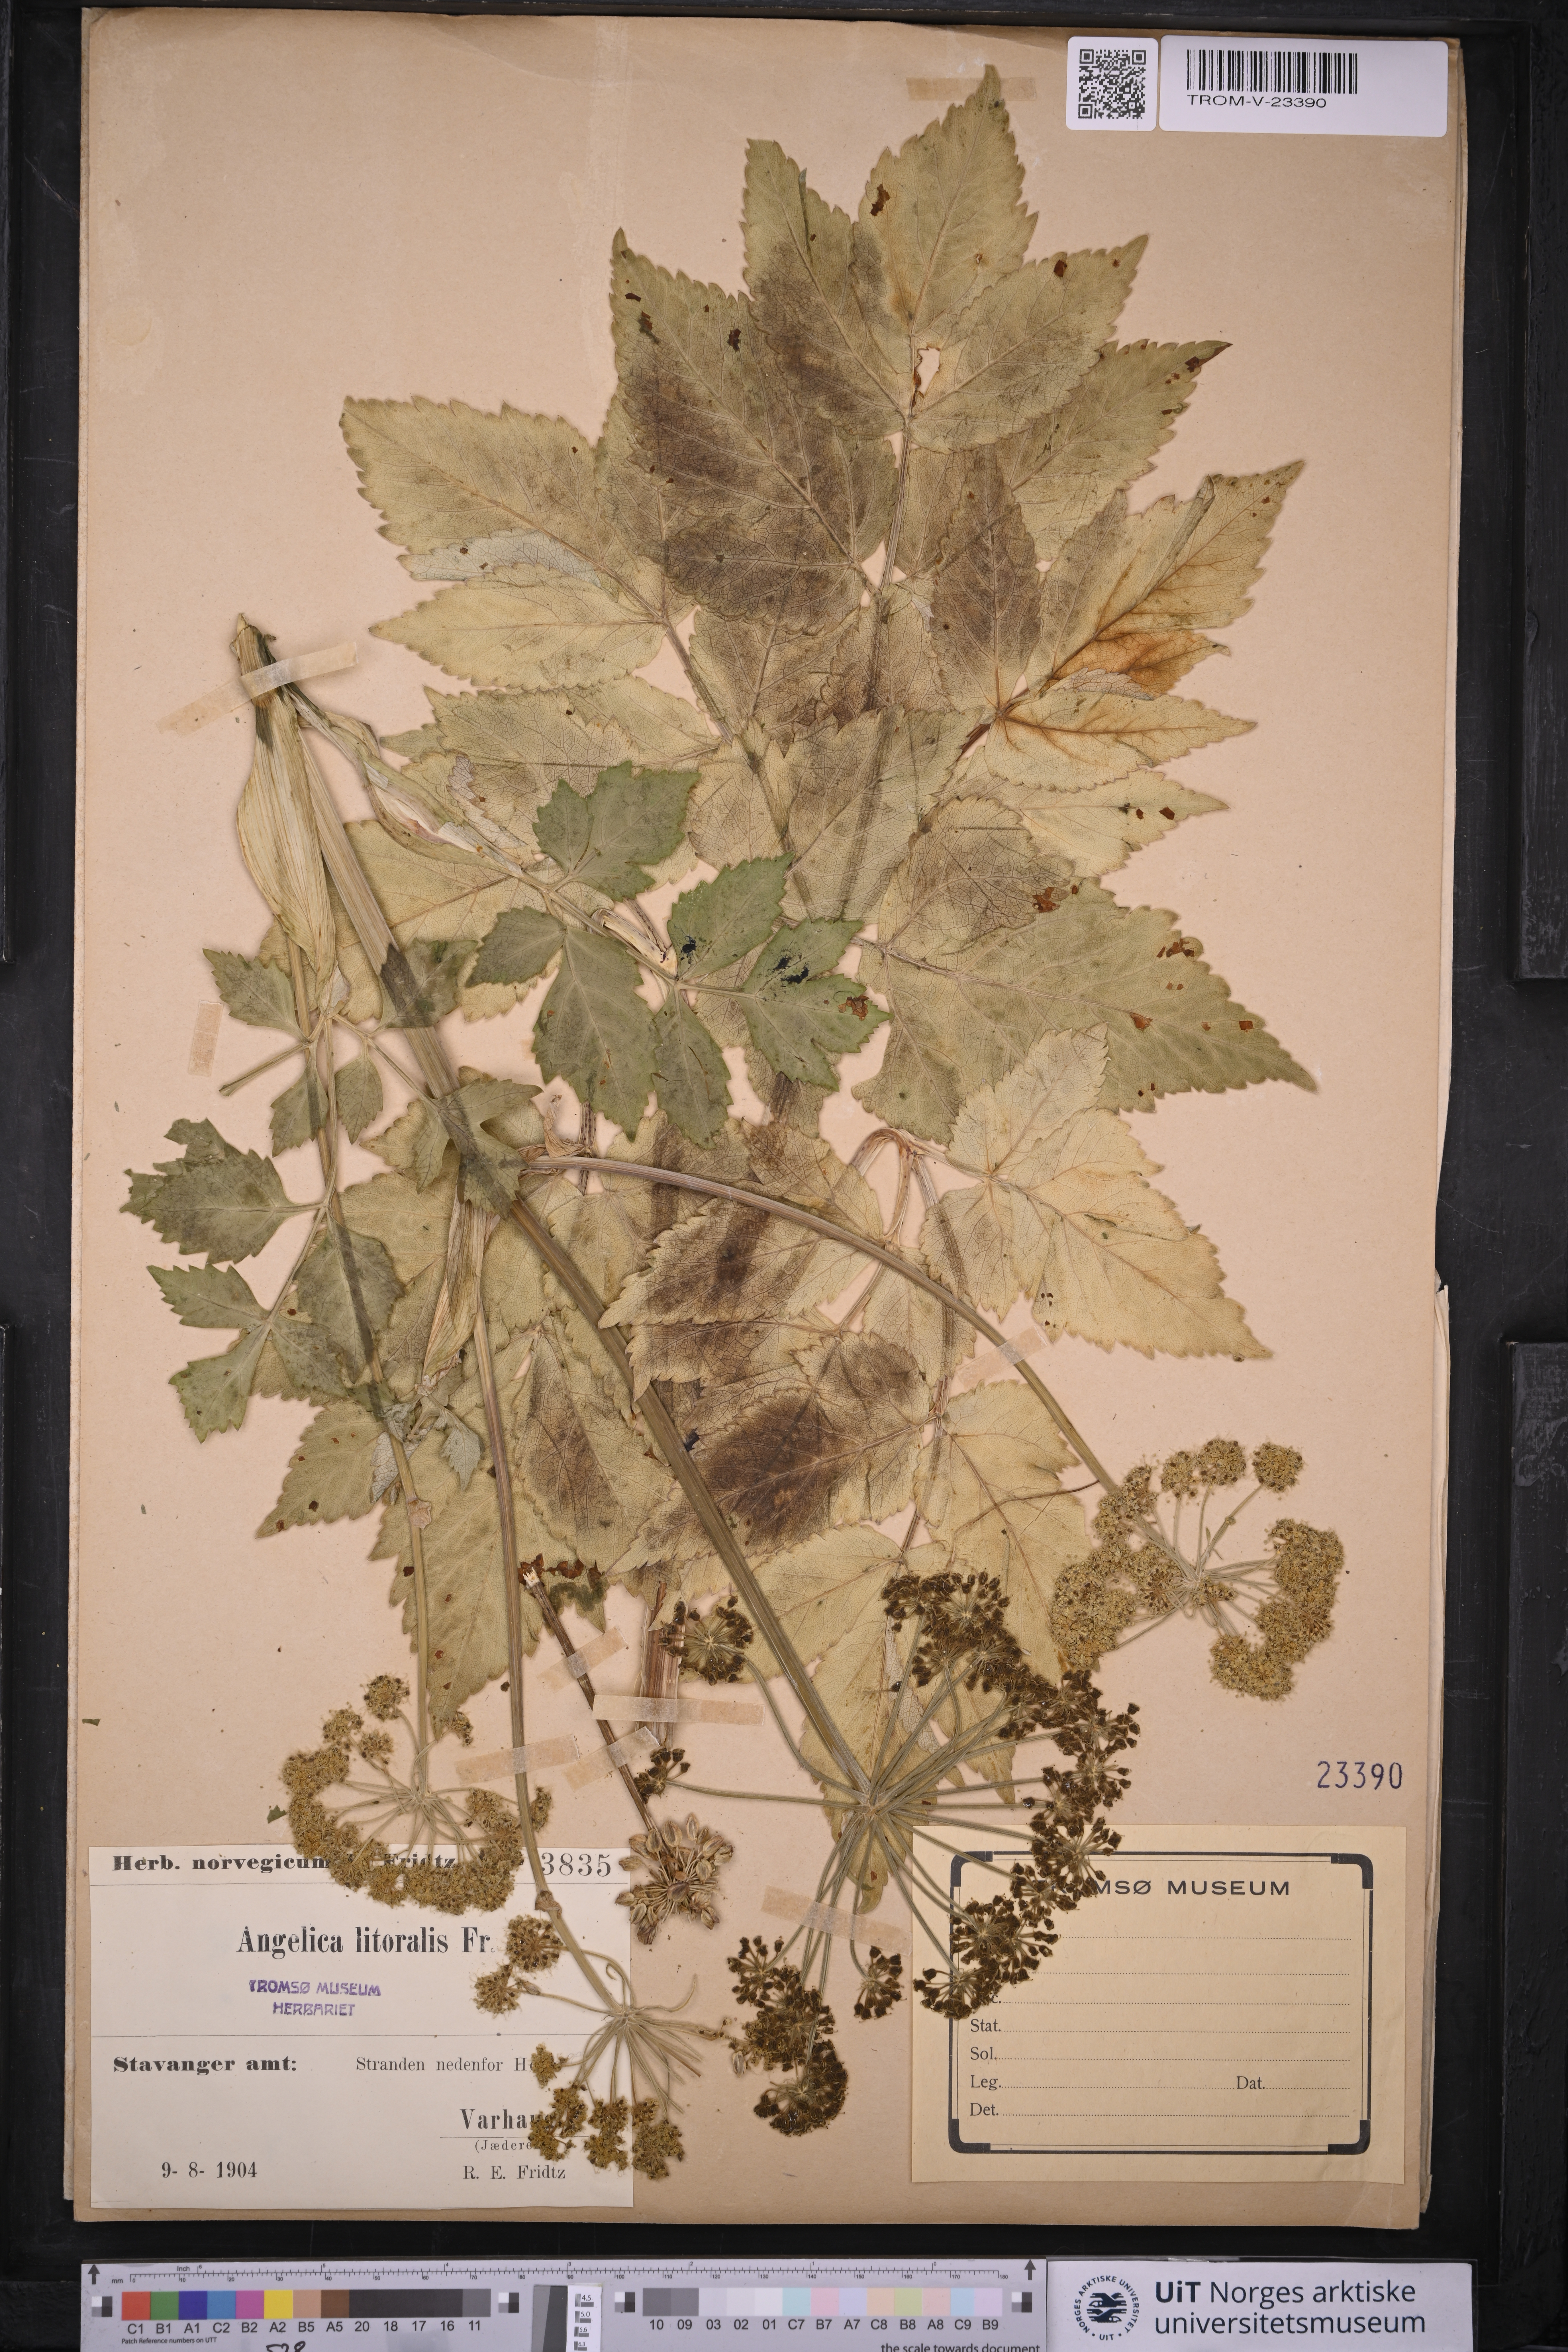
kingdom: Plantae
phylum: Tracheophyta
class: Magnoliopsida
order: Apiales
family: Apiaceae
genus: Angelica
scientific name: Angelica archangelica
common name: Garden angelica
